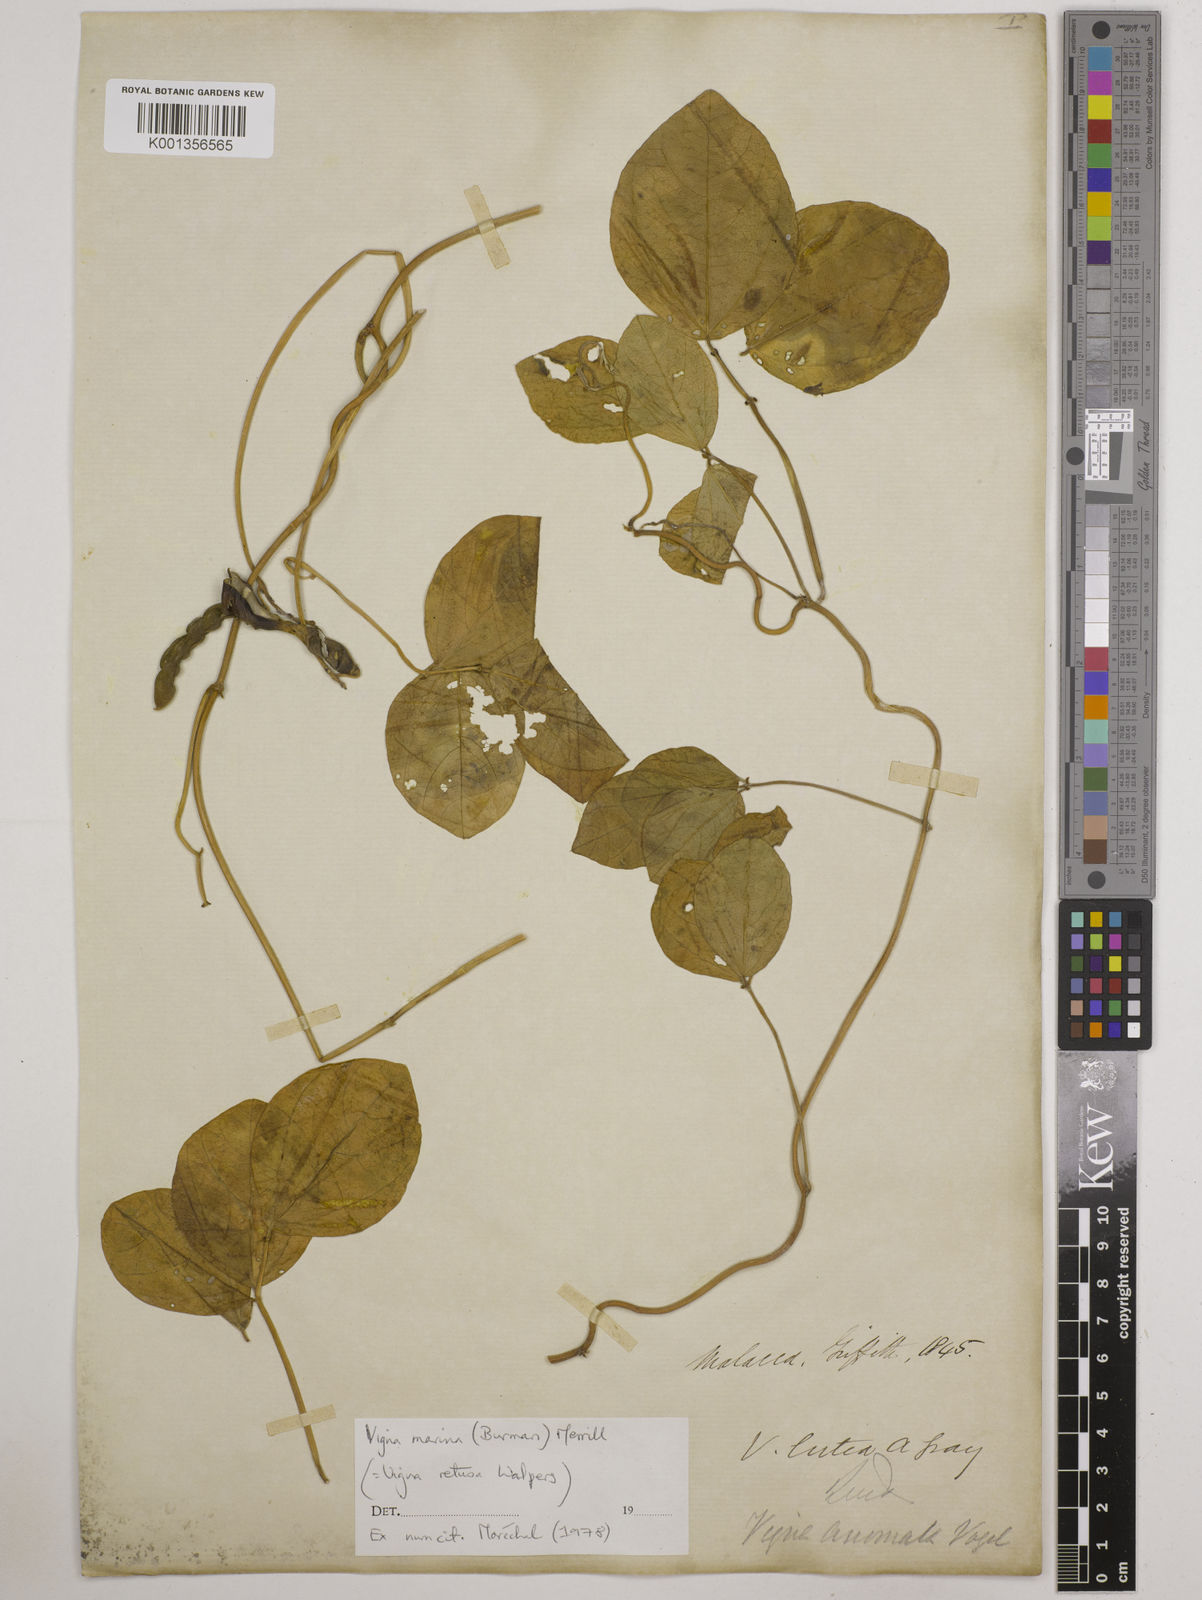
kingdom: Plantae
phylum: Tracheophyta
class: Magnoliopsida
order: Fabales
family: Fabaceae
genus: Vigna
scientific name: Vigna marina
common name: Dune-bean
